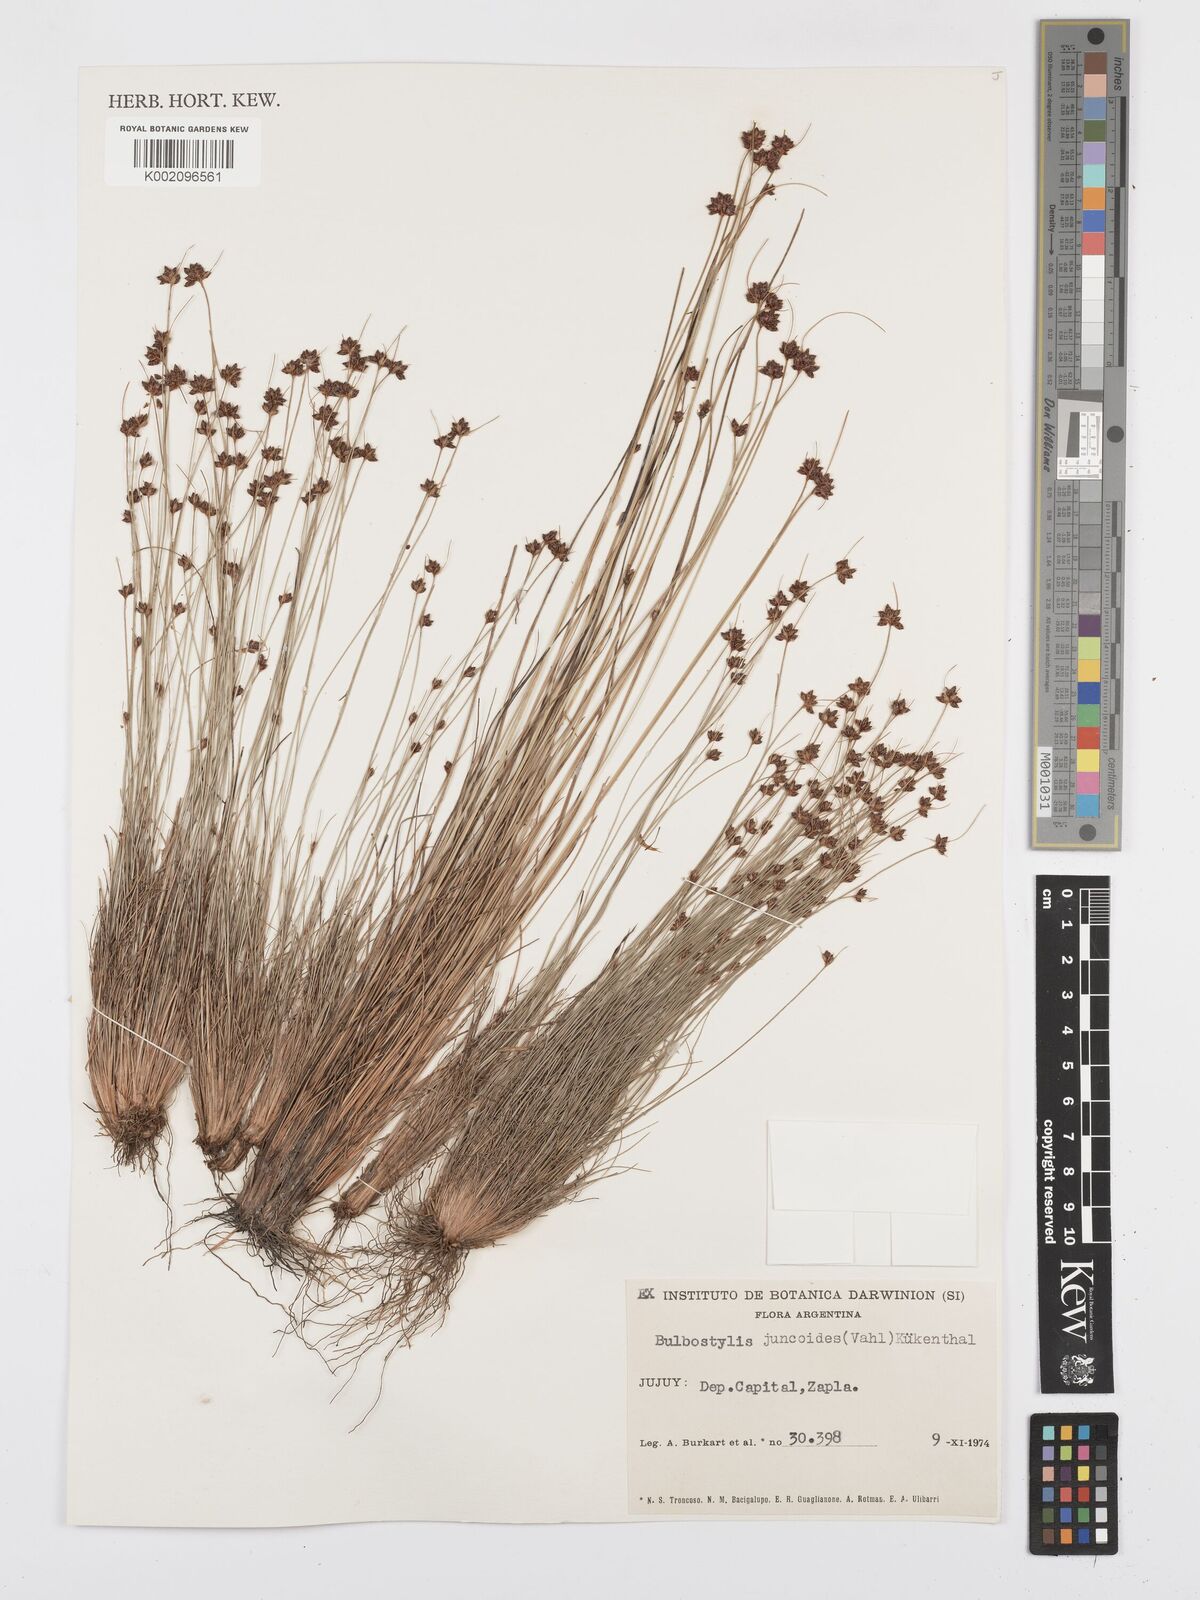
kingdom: Plantae
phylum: Tracheophyta
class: Liliopsida
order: Poales
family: Cyperaceae
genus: Bulbostylis
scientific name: Bulbostylis juncoides
